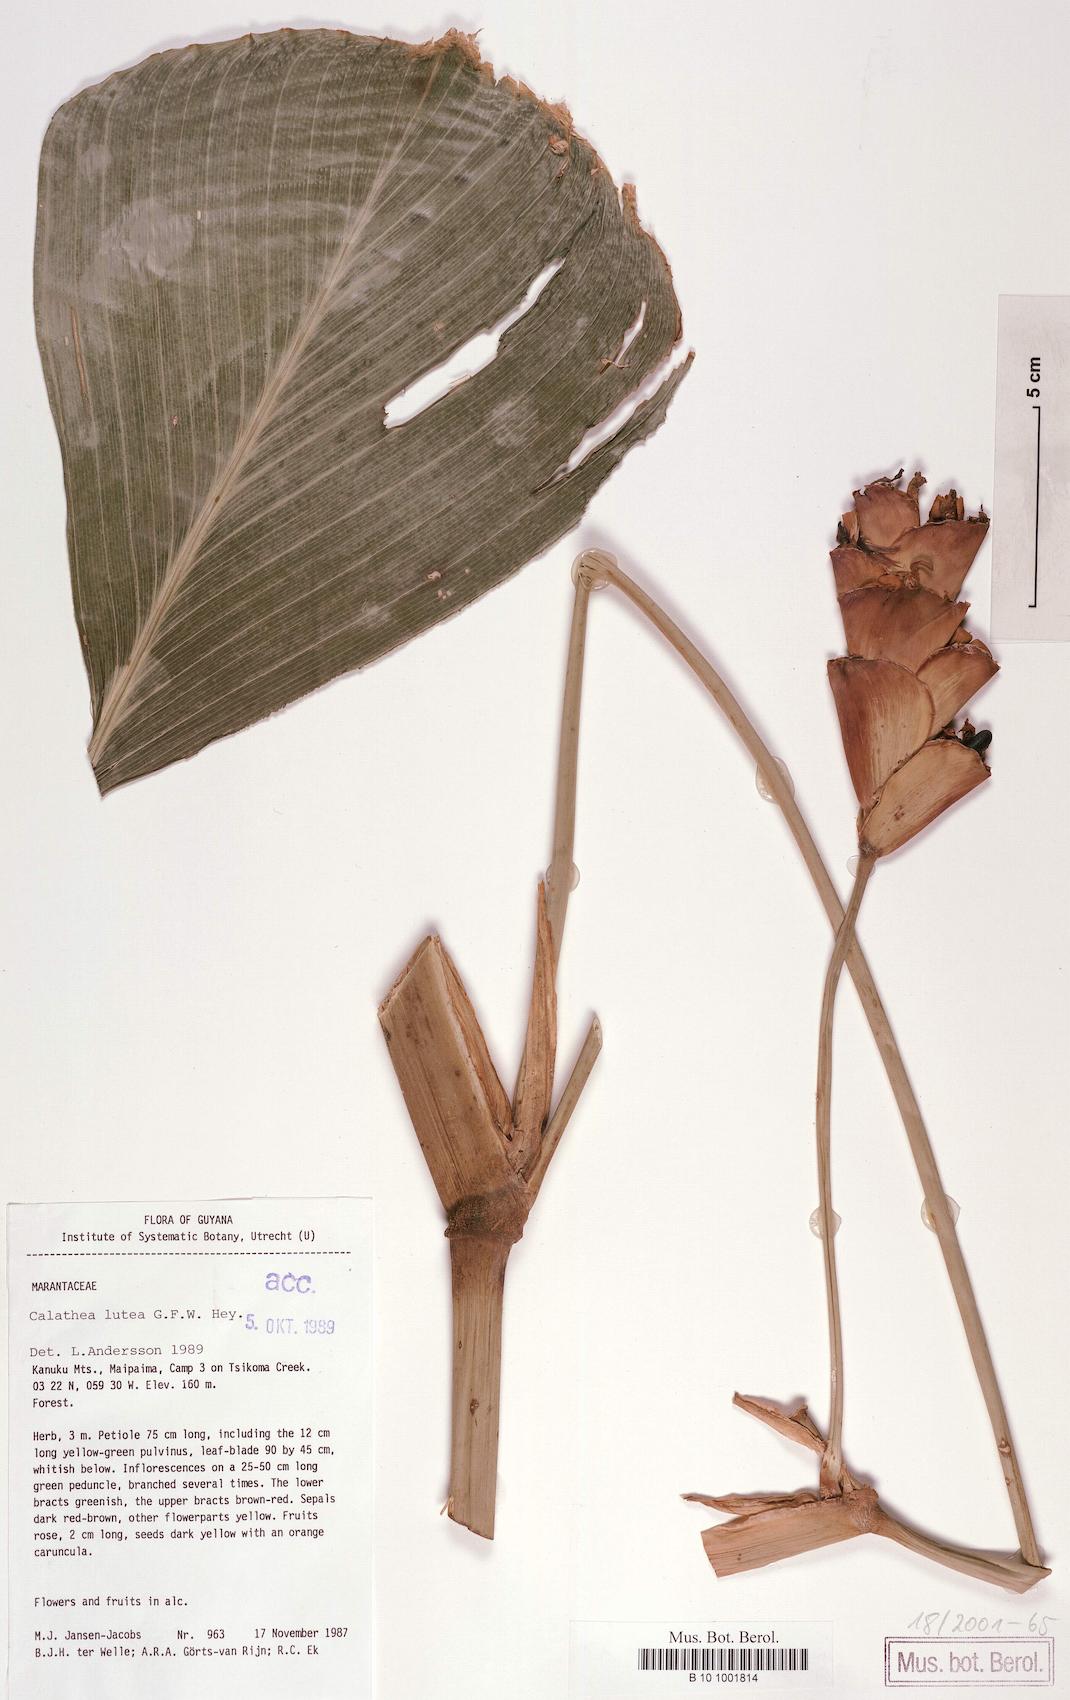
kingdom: Plantae
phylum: Tracheophyta
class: Liliopsida
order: Zingiberales
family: Marantaceae
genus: Calathea
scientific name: Calathea lutea
